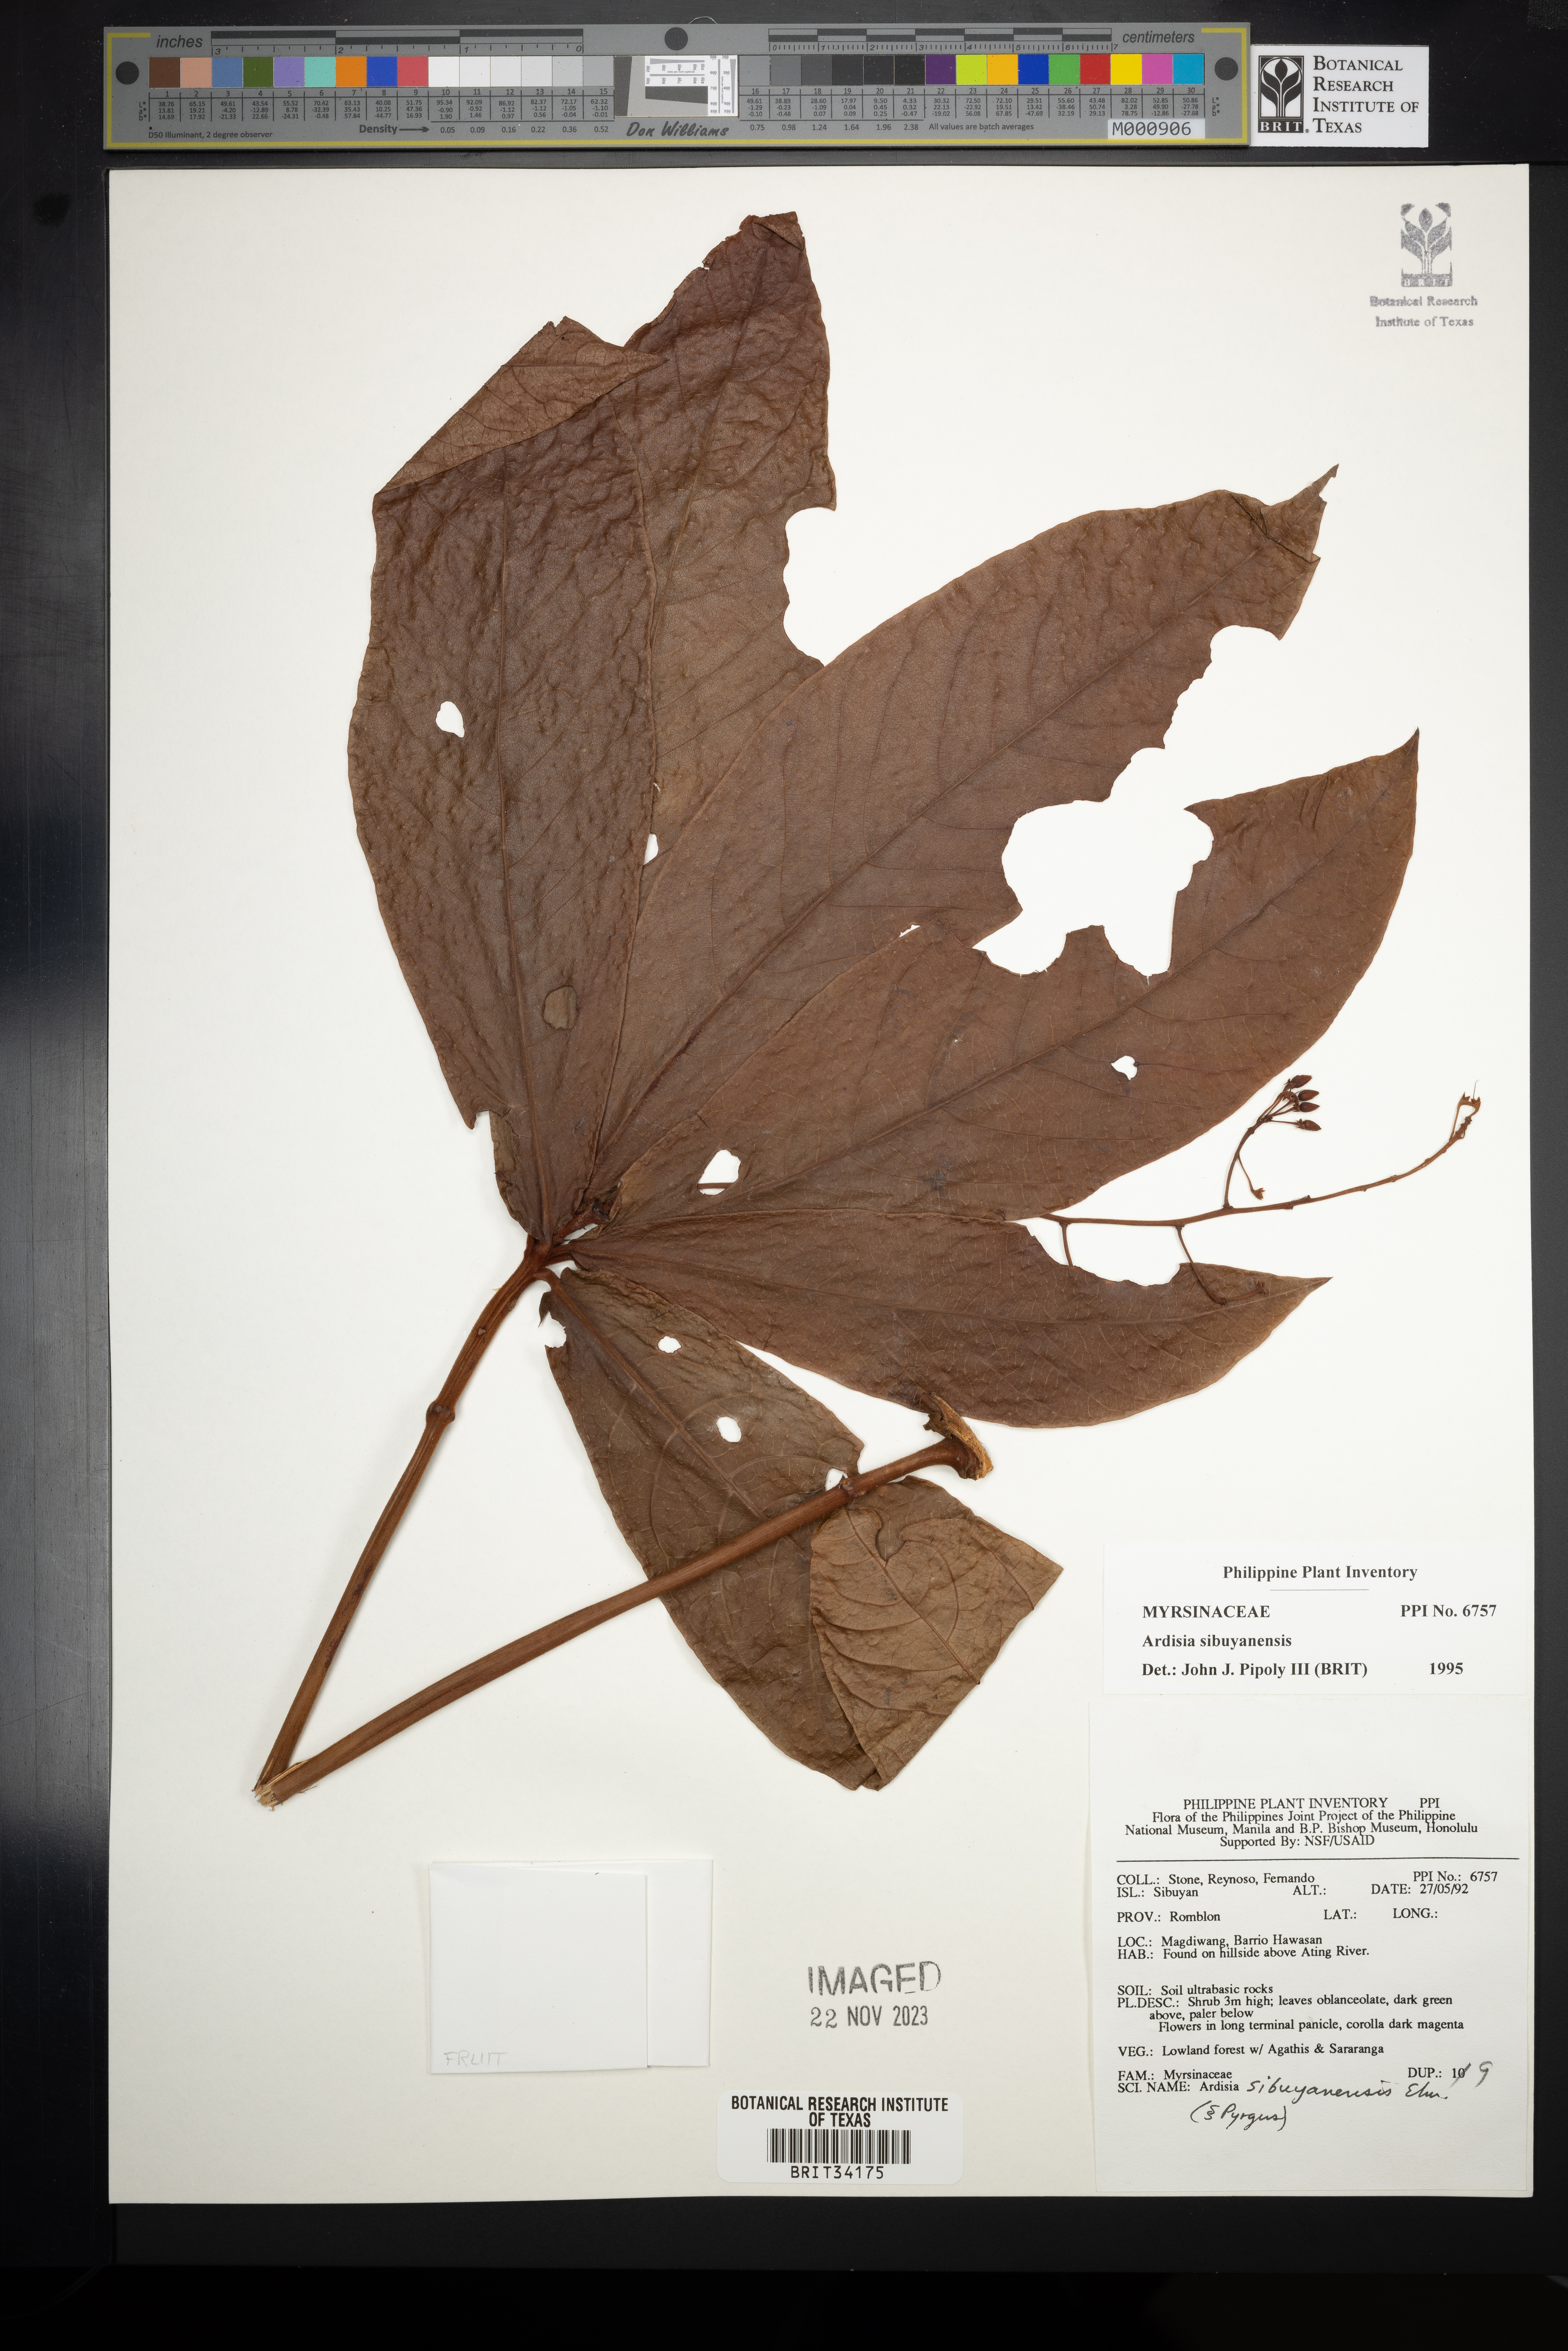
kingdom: Plantae
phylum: Tracheophyta
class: Magnoliopsida
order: Ericales
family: Primulaceae
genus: Ardisia
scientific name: Ardisia brevipetiolata
